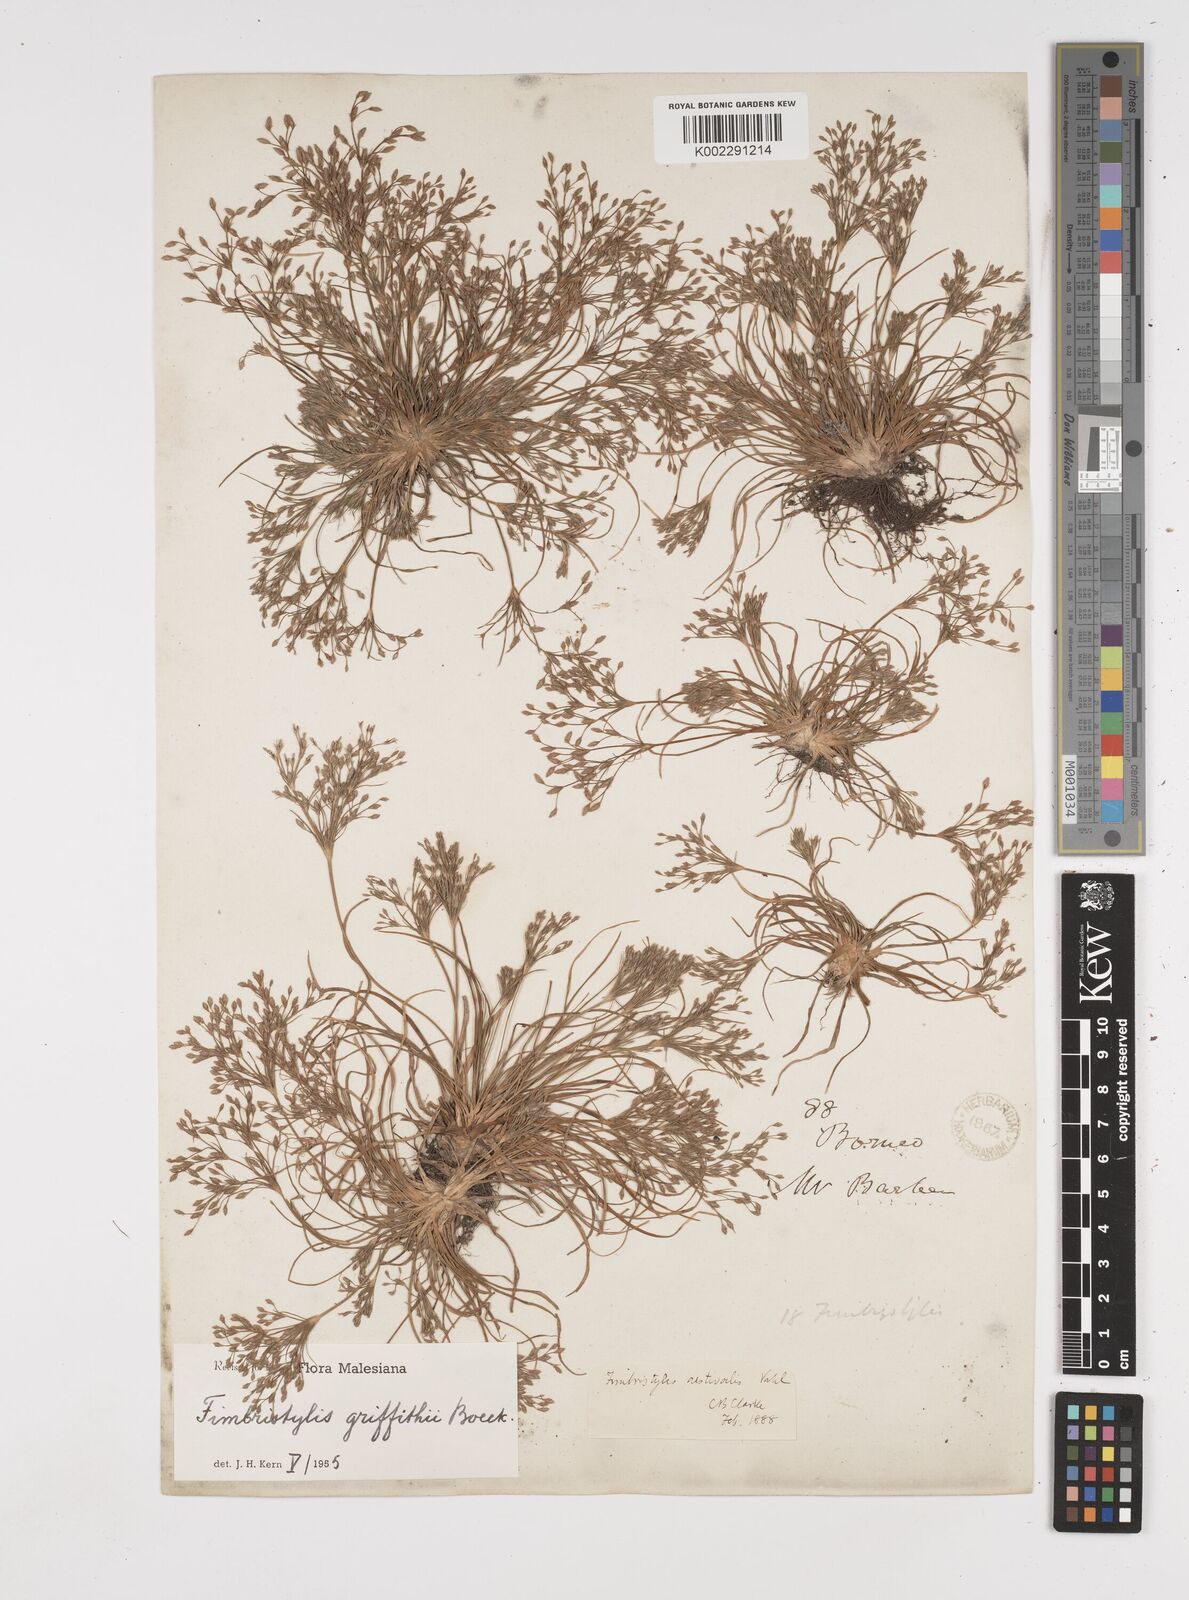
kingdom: Plantae
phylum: Tracheophyta
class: Liliopsida
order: Poales
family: Cyperaceae
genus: Fimbristylis
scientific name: Fimbristylis griffithii
